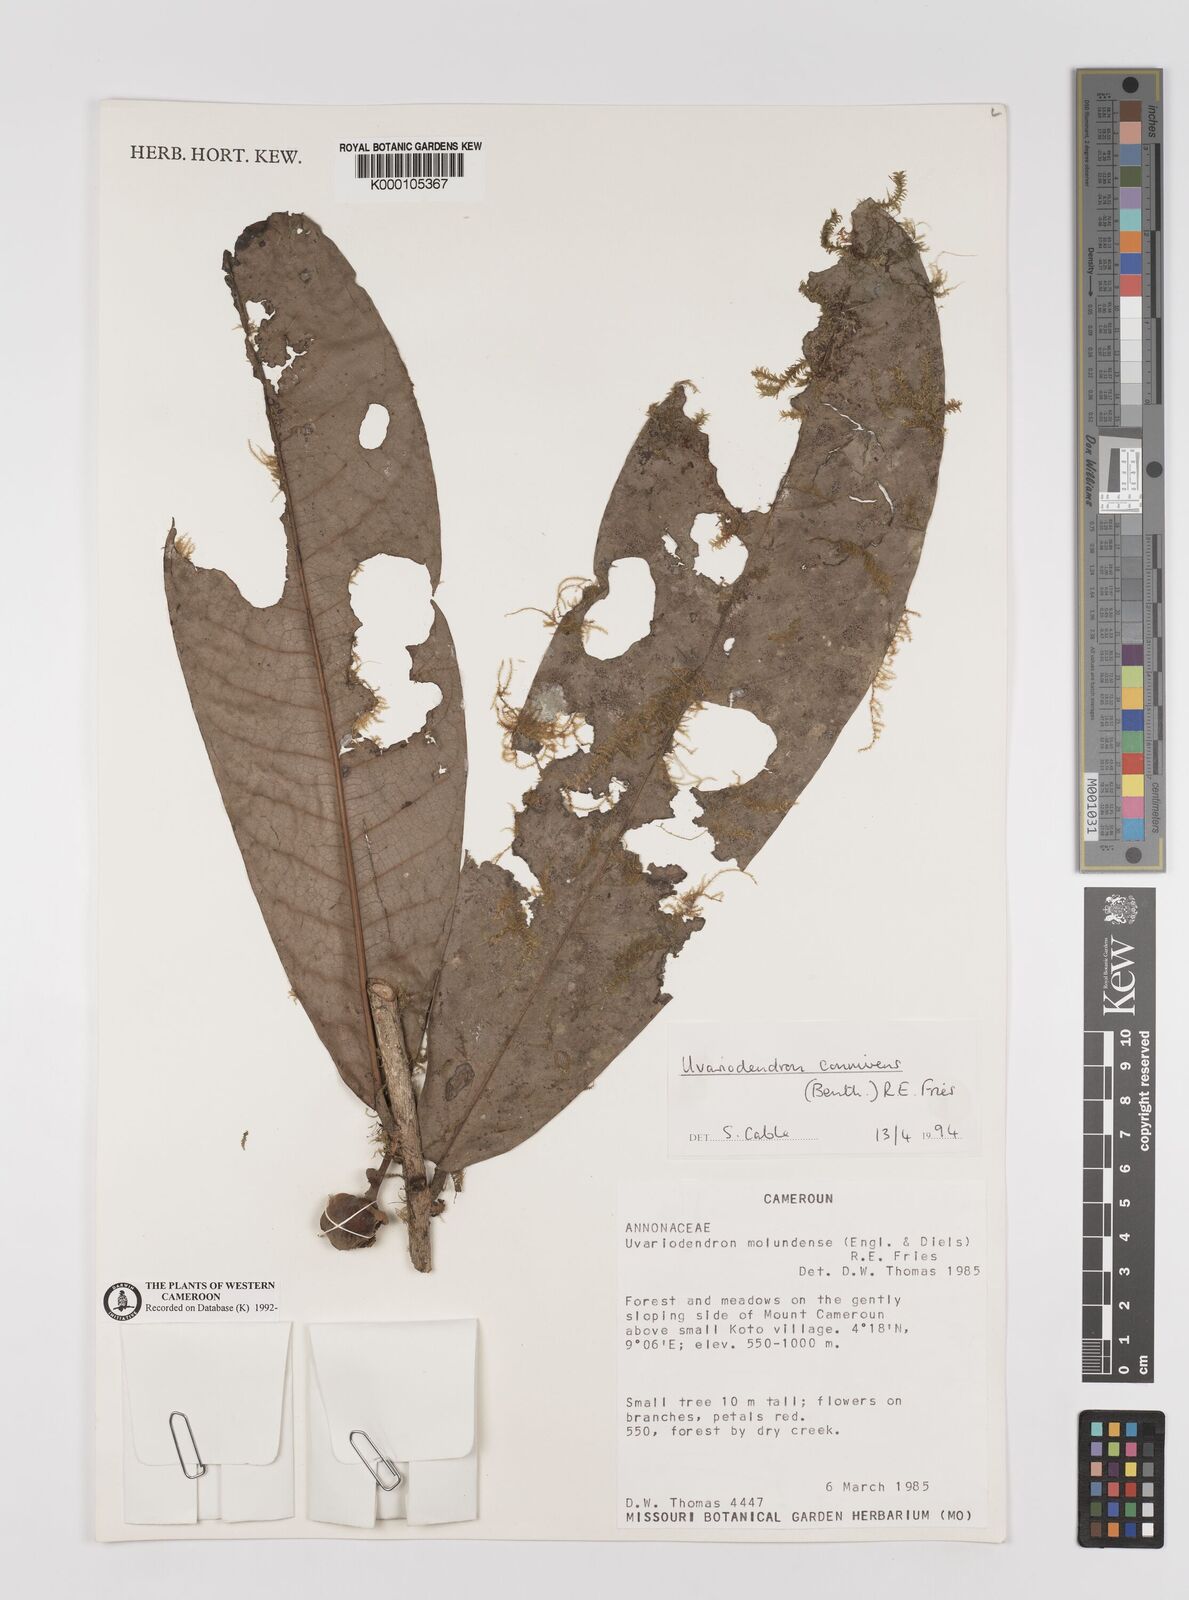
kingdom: Plantae
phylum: Tracheophyta
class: Magnoliopsida
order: Magnoliales
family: Annonaceae
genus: Uvariodendron
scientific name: Uvariodendron connivens
